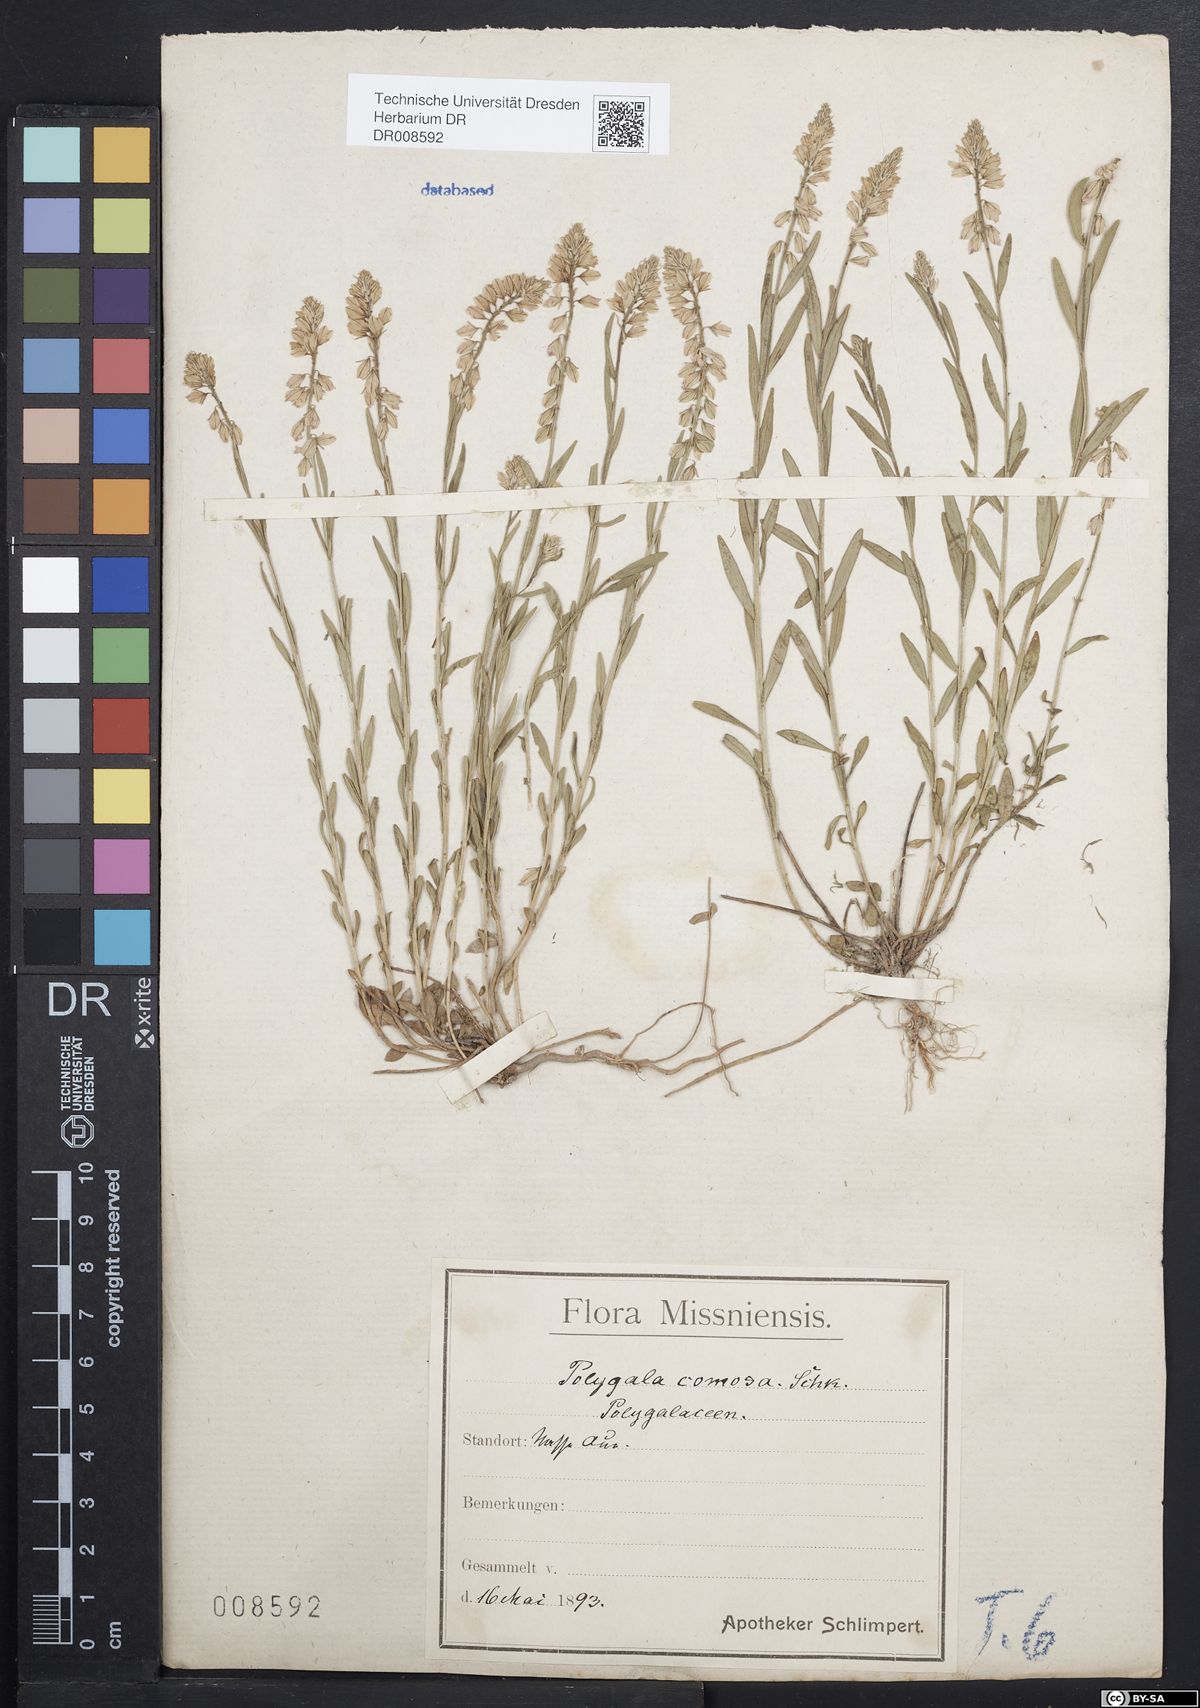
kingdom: Plantae
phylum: Tracheophyta
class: Magnoliopsida
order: Fabales
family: Polygalaceae
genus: Polygala
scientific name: Polygala comosa
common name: Tufted milkwort
